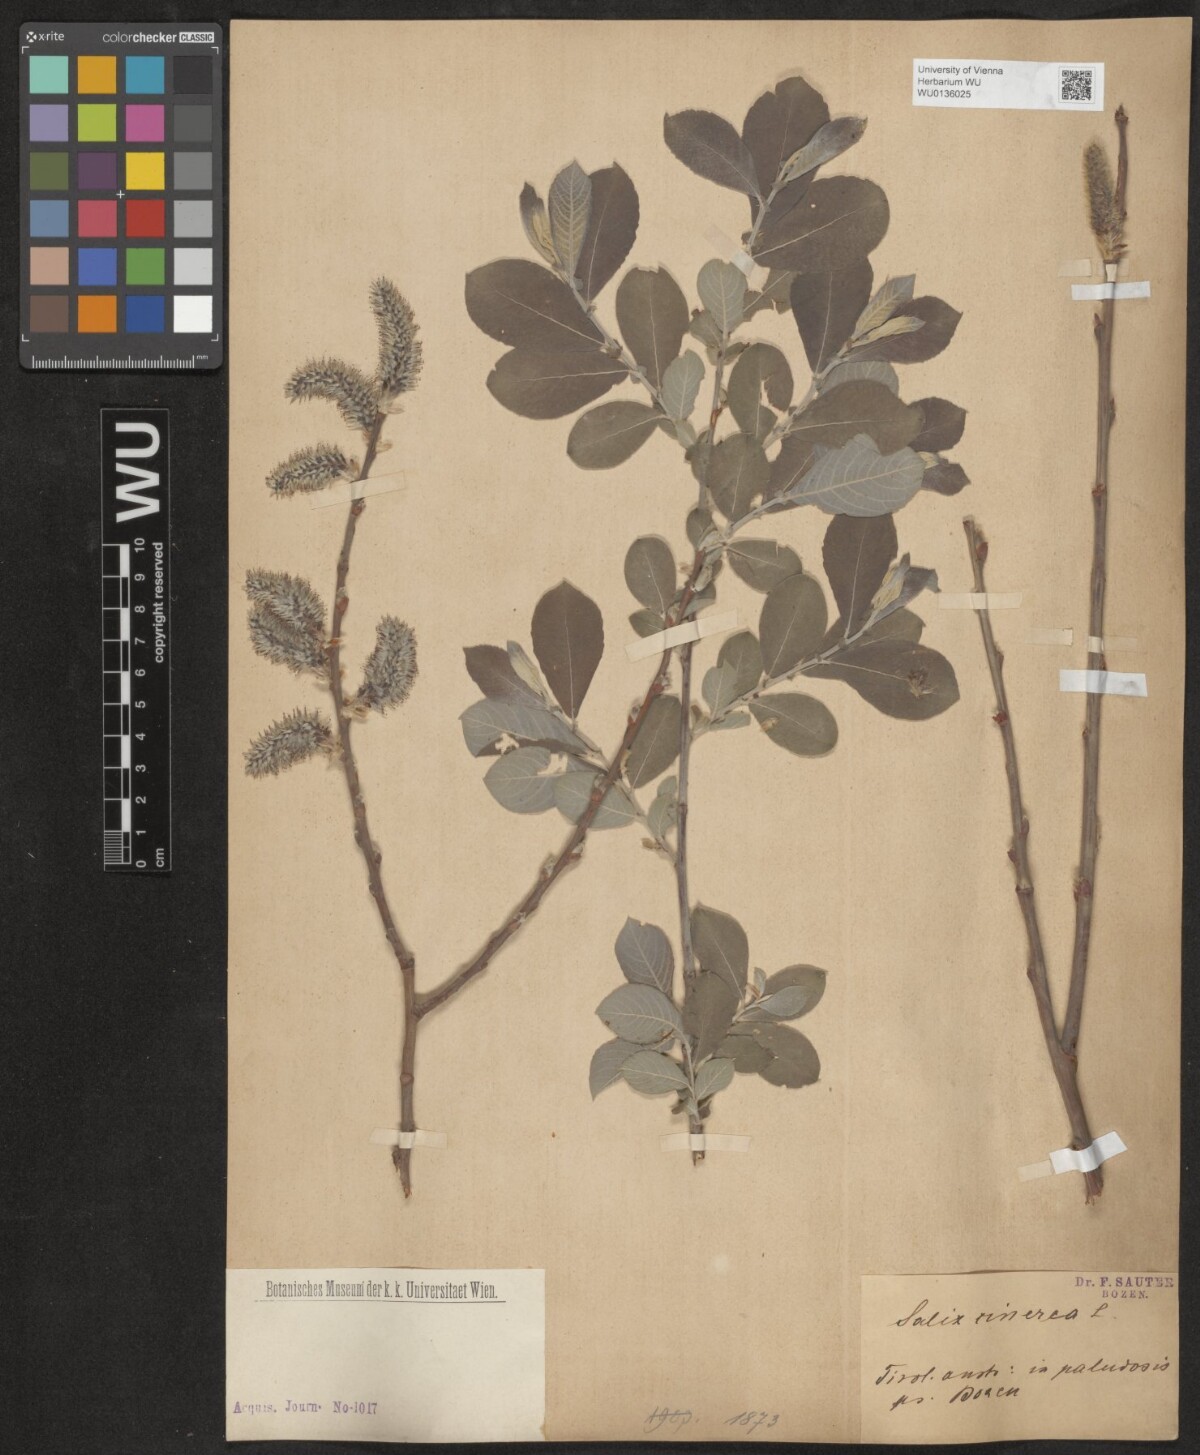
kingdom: Plantae
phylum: Tracheophyta
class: Magnoliopsida
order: Malpighiales
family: Salicaceae
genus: Salix
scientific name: Salix cinerea
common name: Common sallow
